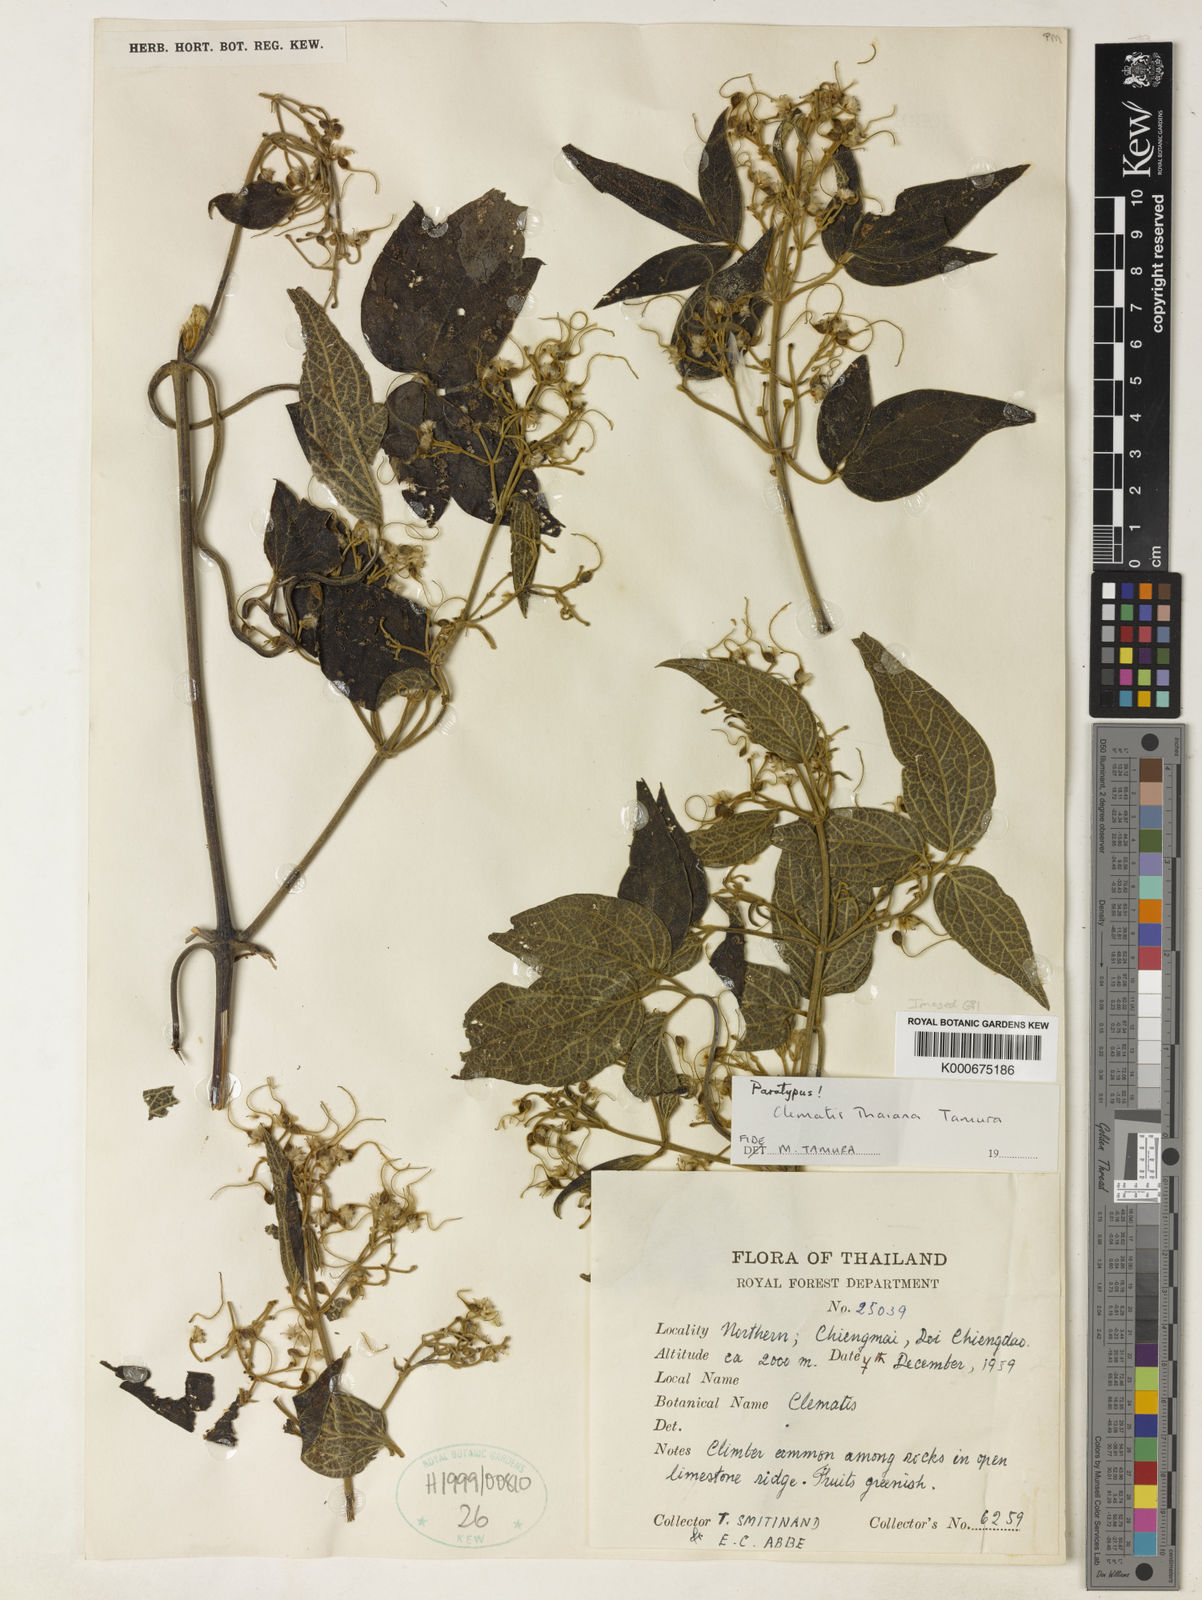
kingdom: Plantae
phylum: Tracheophyta
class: Magnoliopsida
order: Ranunculales
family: Ranunculaceae
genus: Clematis
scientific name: Clematis thaiana
